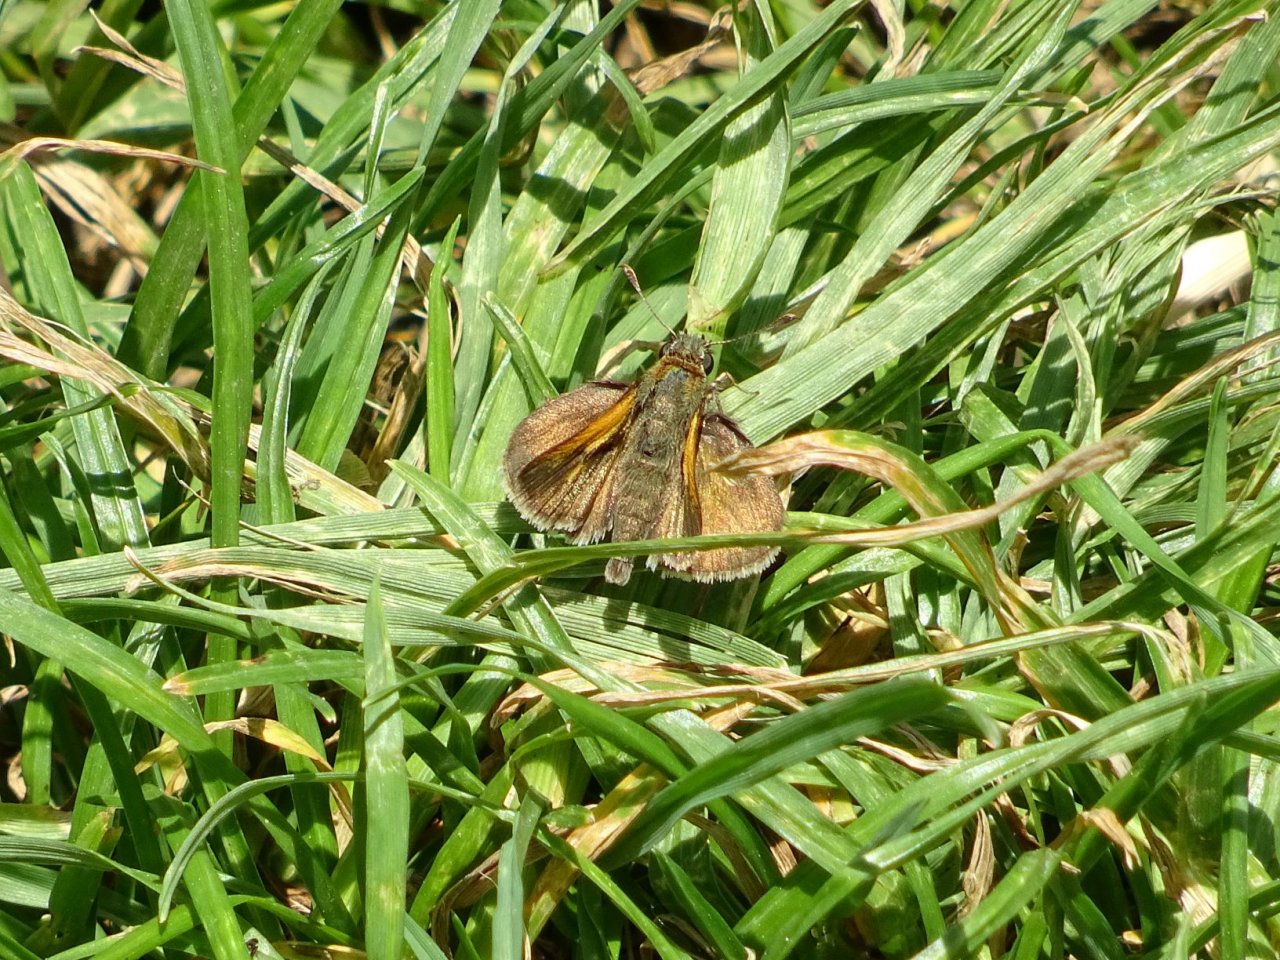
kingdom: Animalia
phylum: Arthropoda
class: Insecta
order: Lepidoptera
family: Hesperiidae
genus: Polites
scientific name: Polites themistocles
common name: Tawny-edged Skipper
